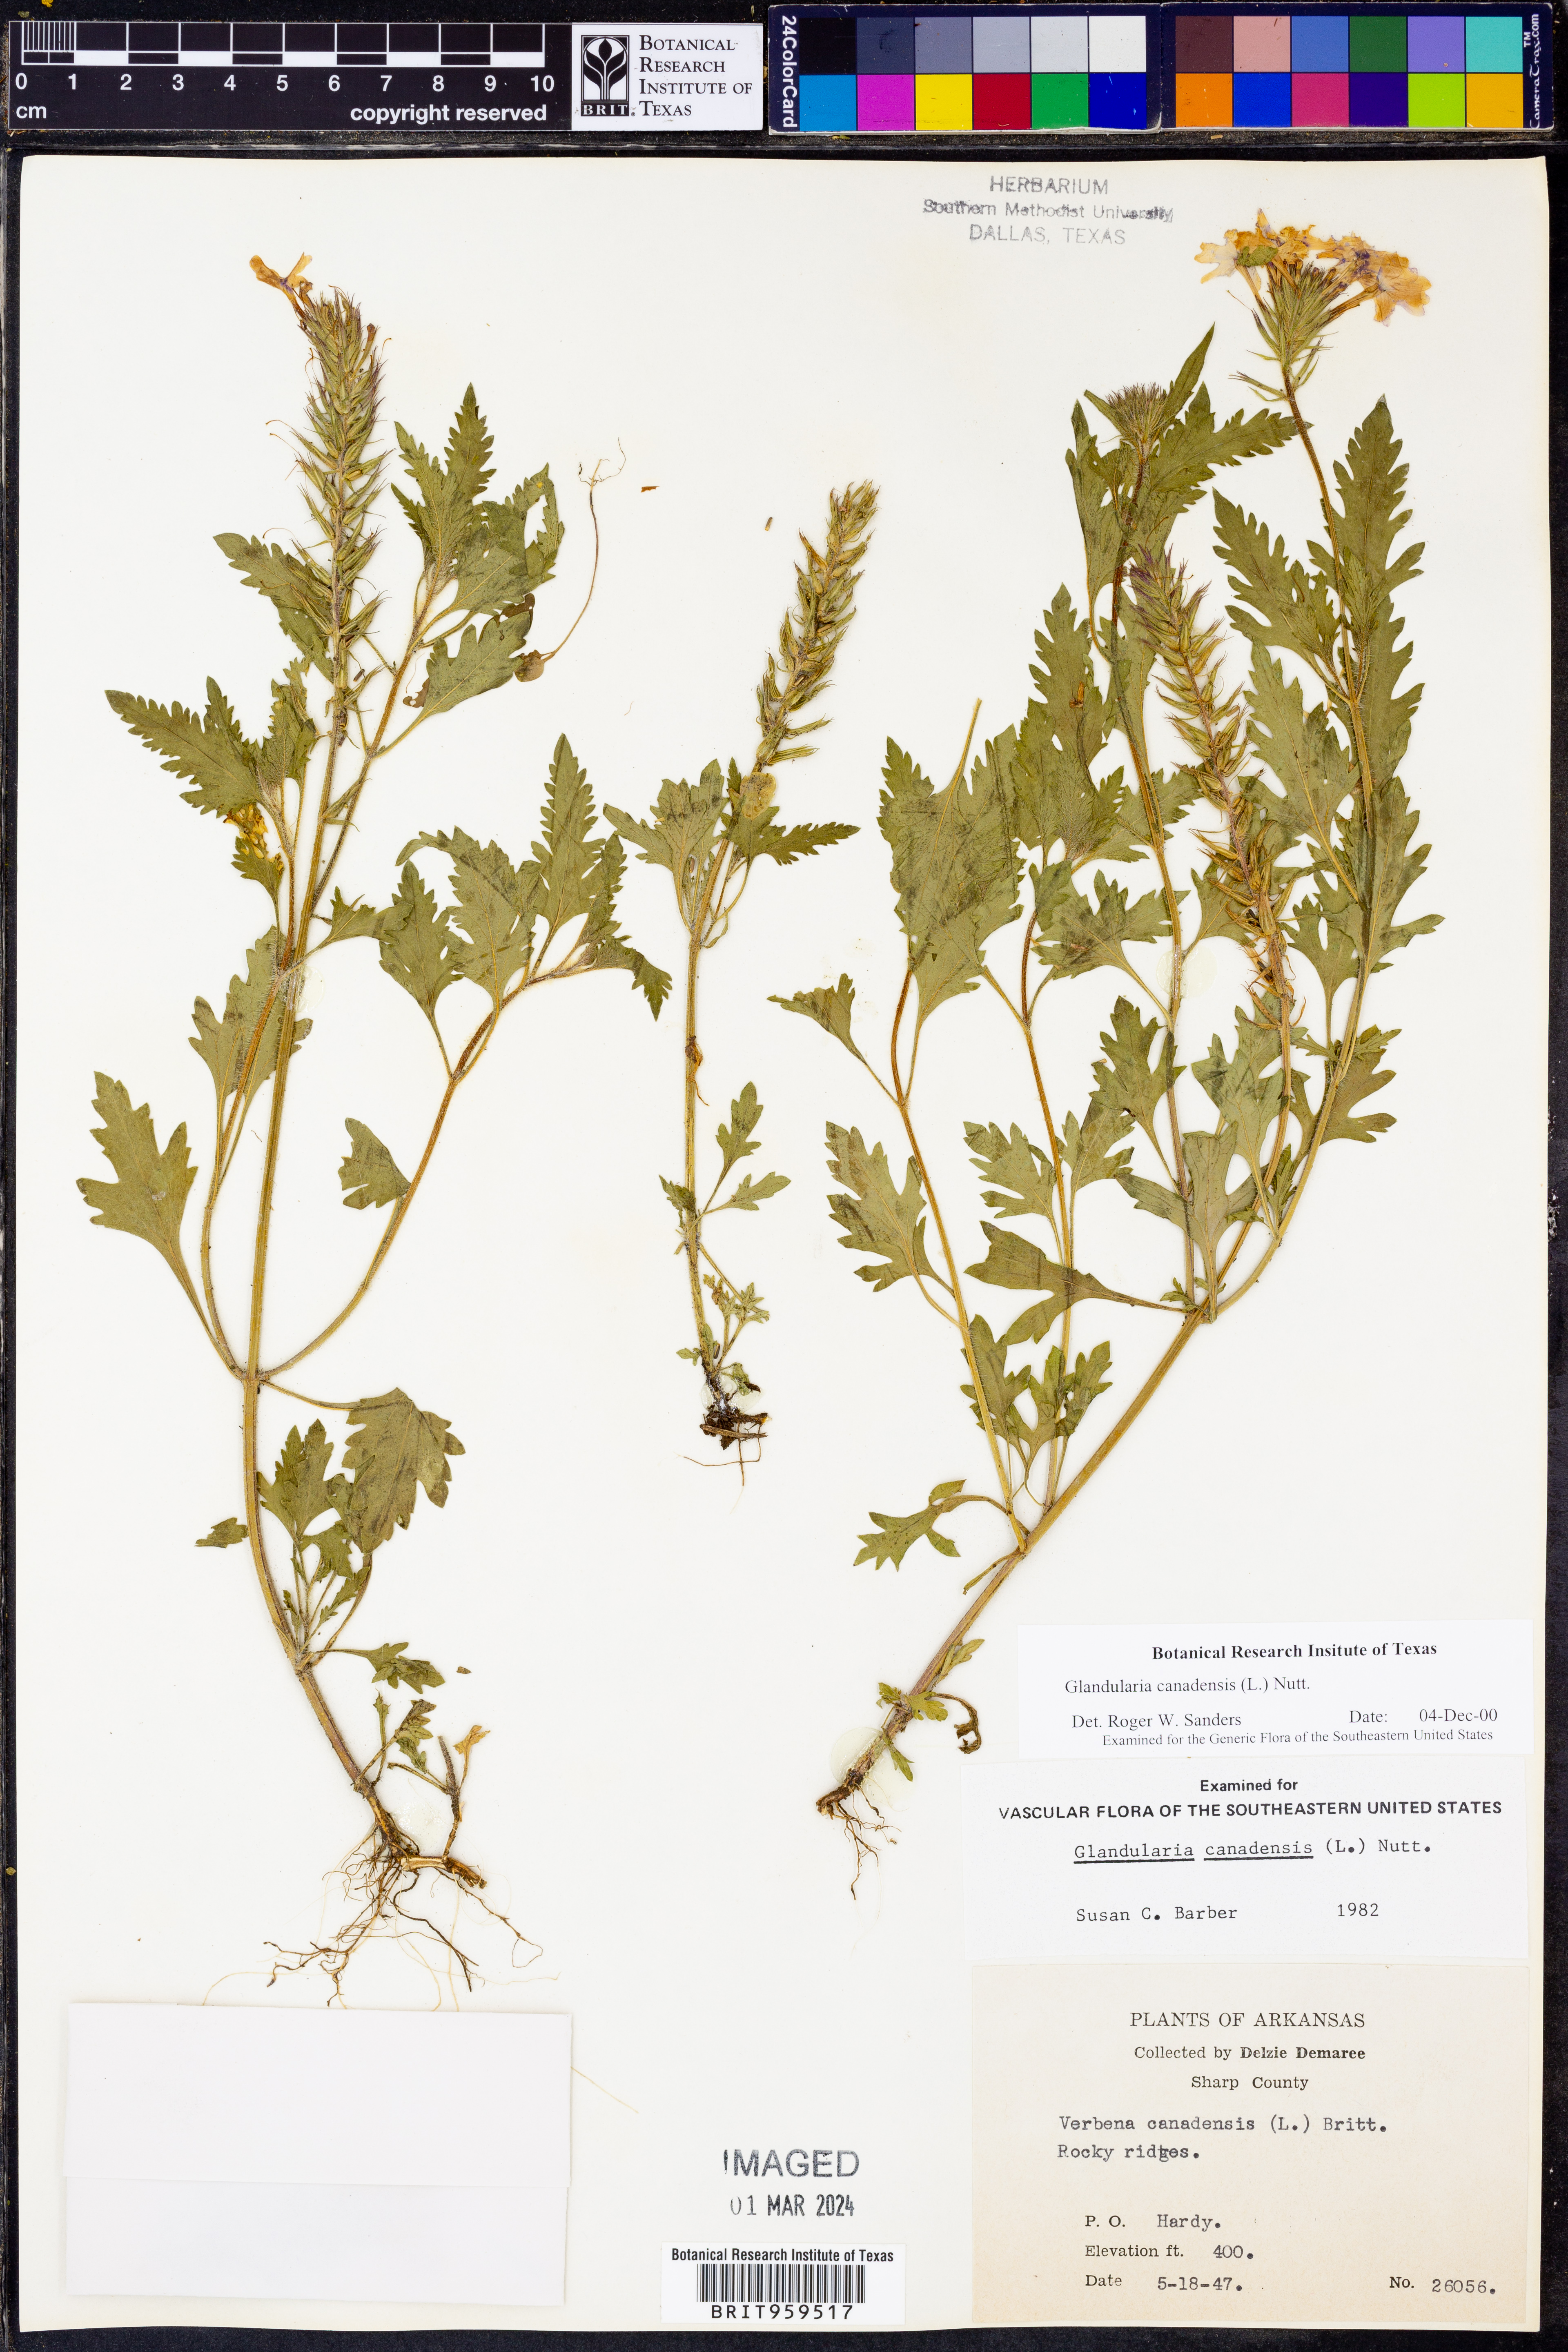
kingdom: Plantae
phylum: Tracheophyta
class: Magnoliopsida
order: Lamiales
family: Verbenaceae
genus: Verbena
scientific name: Verbena canadensis
